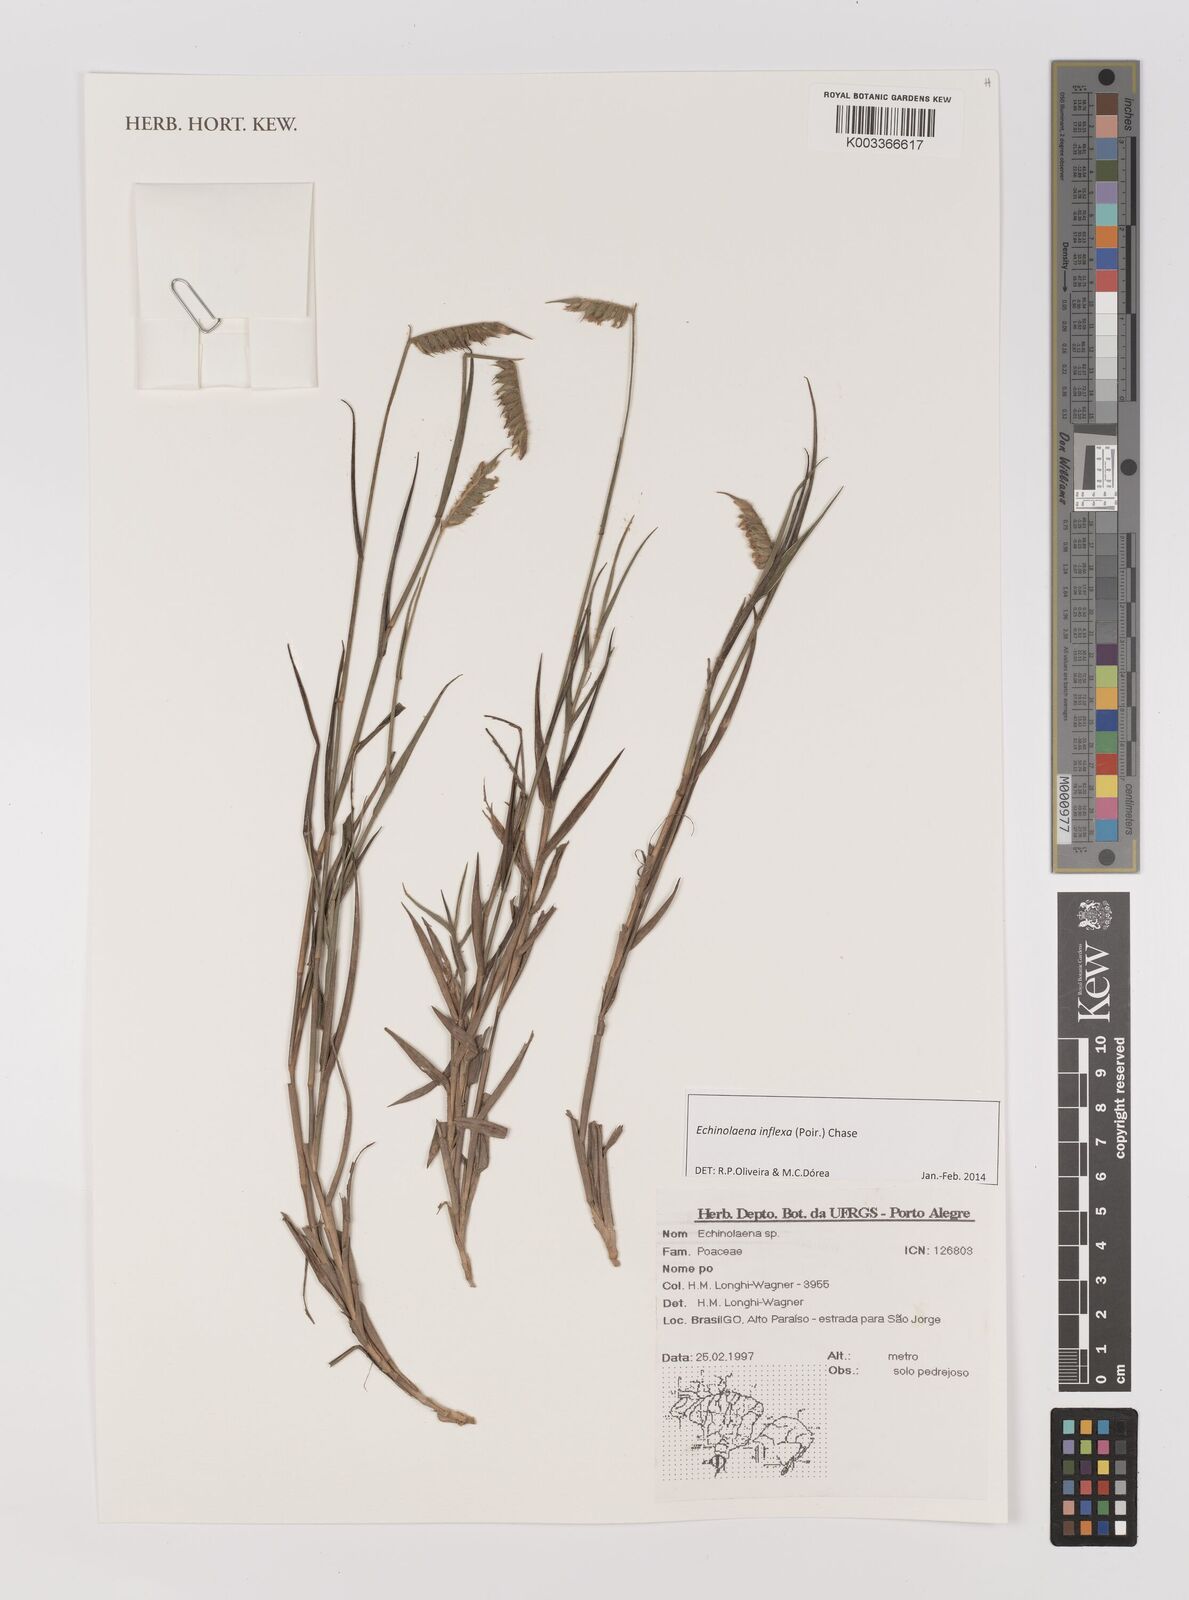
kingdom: Plantae
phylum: Tracheophyta
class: Liliopsida
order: Poales
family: Poaceae
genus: Echinolaena
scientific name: Echinolaena inflexa
